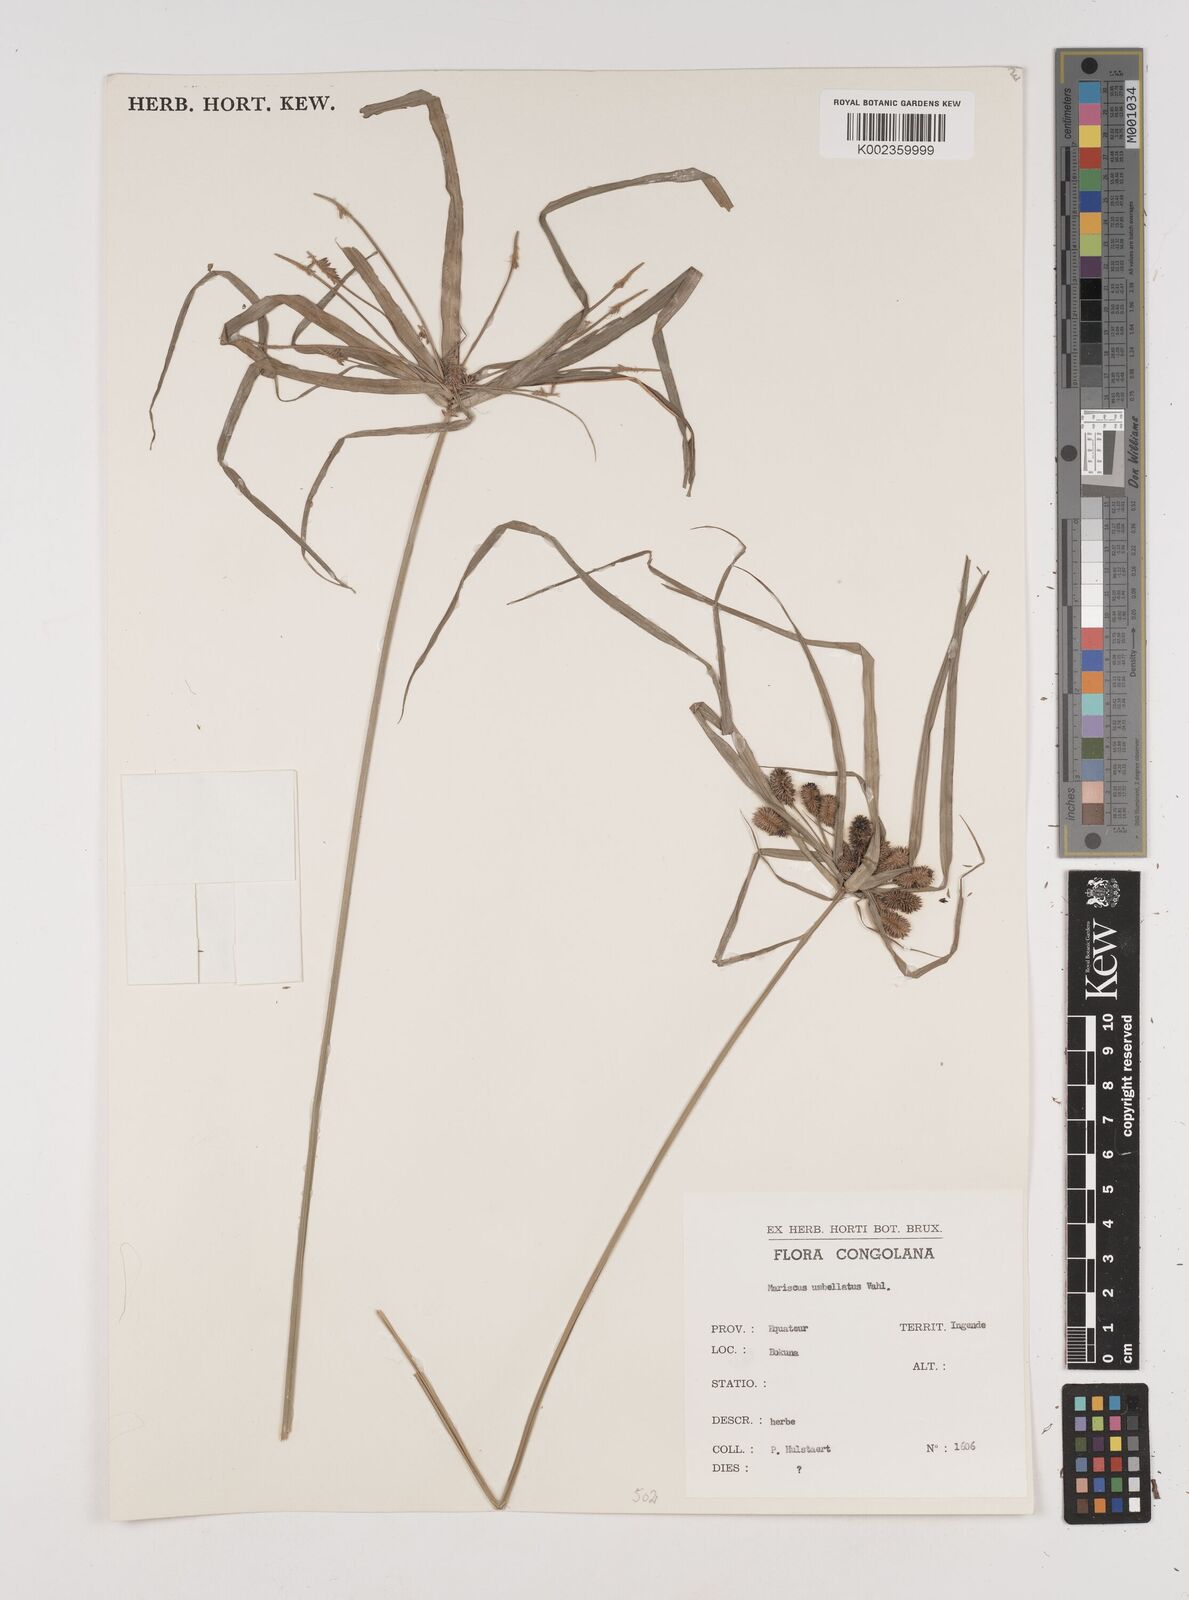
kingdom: Plantae
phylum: Tracheophyta
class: Liliopsida
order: Poales
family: Cyperaceae
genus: Cyperus
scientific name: Cyperus cyperoides
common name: Pacific island flat sedge
